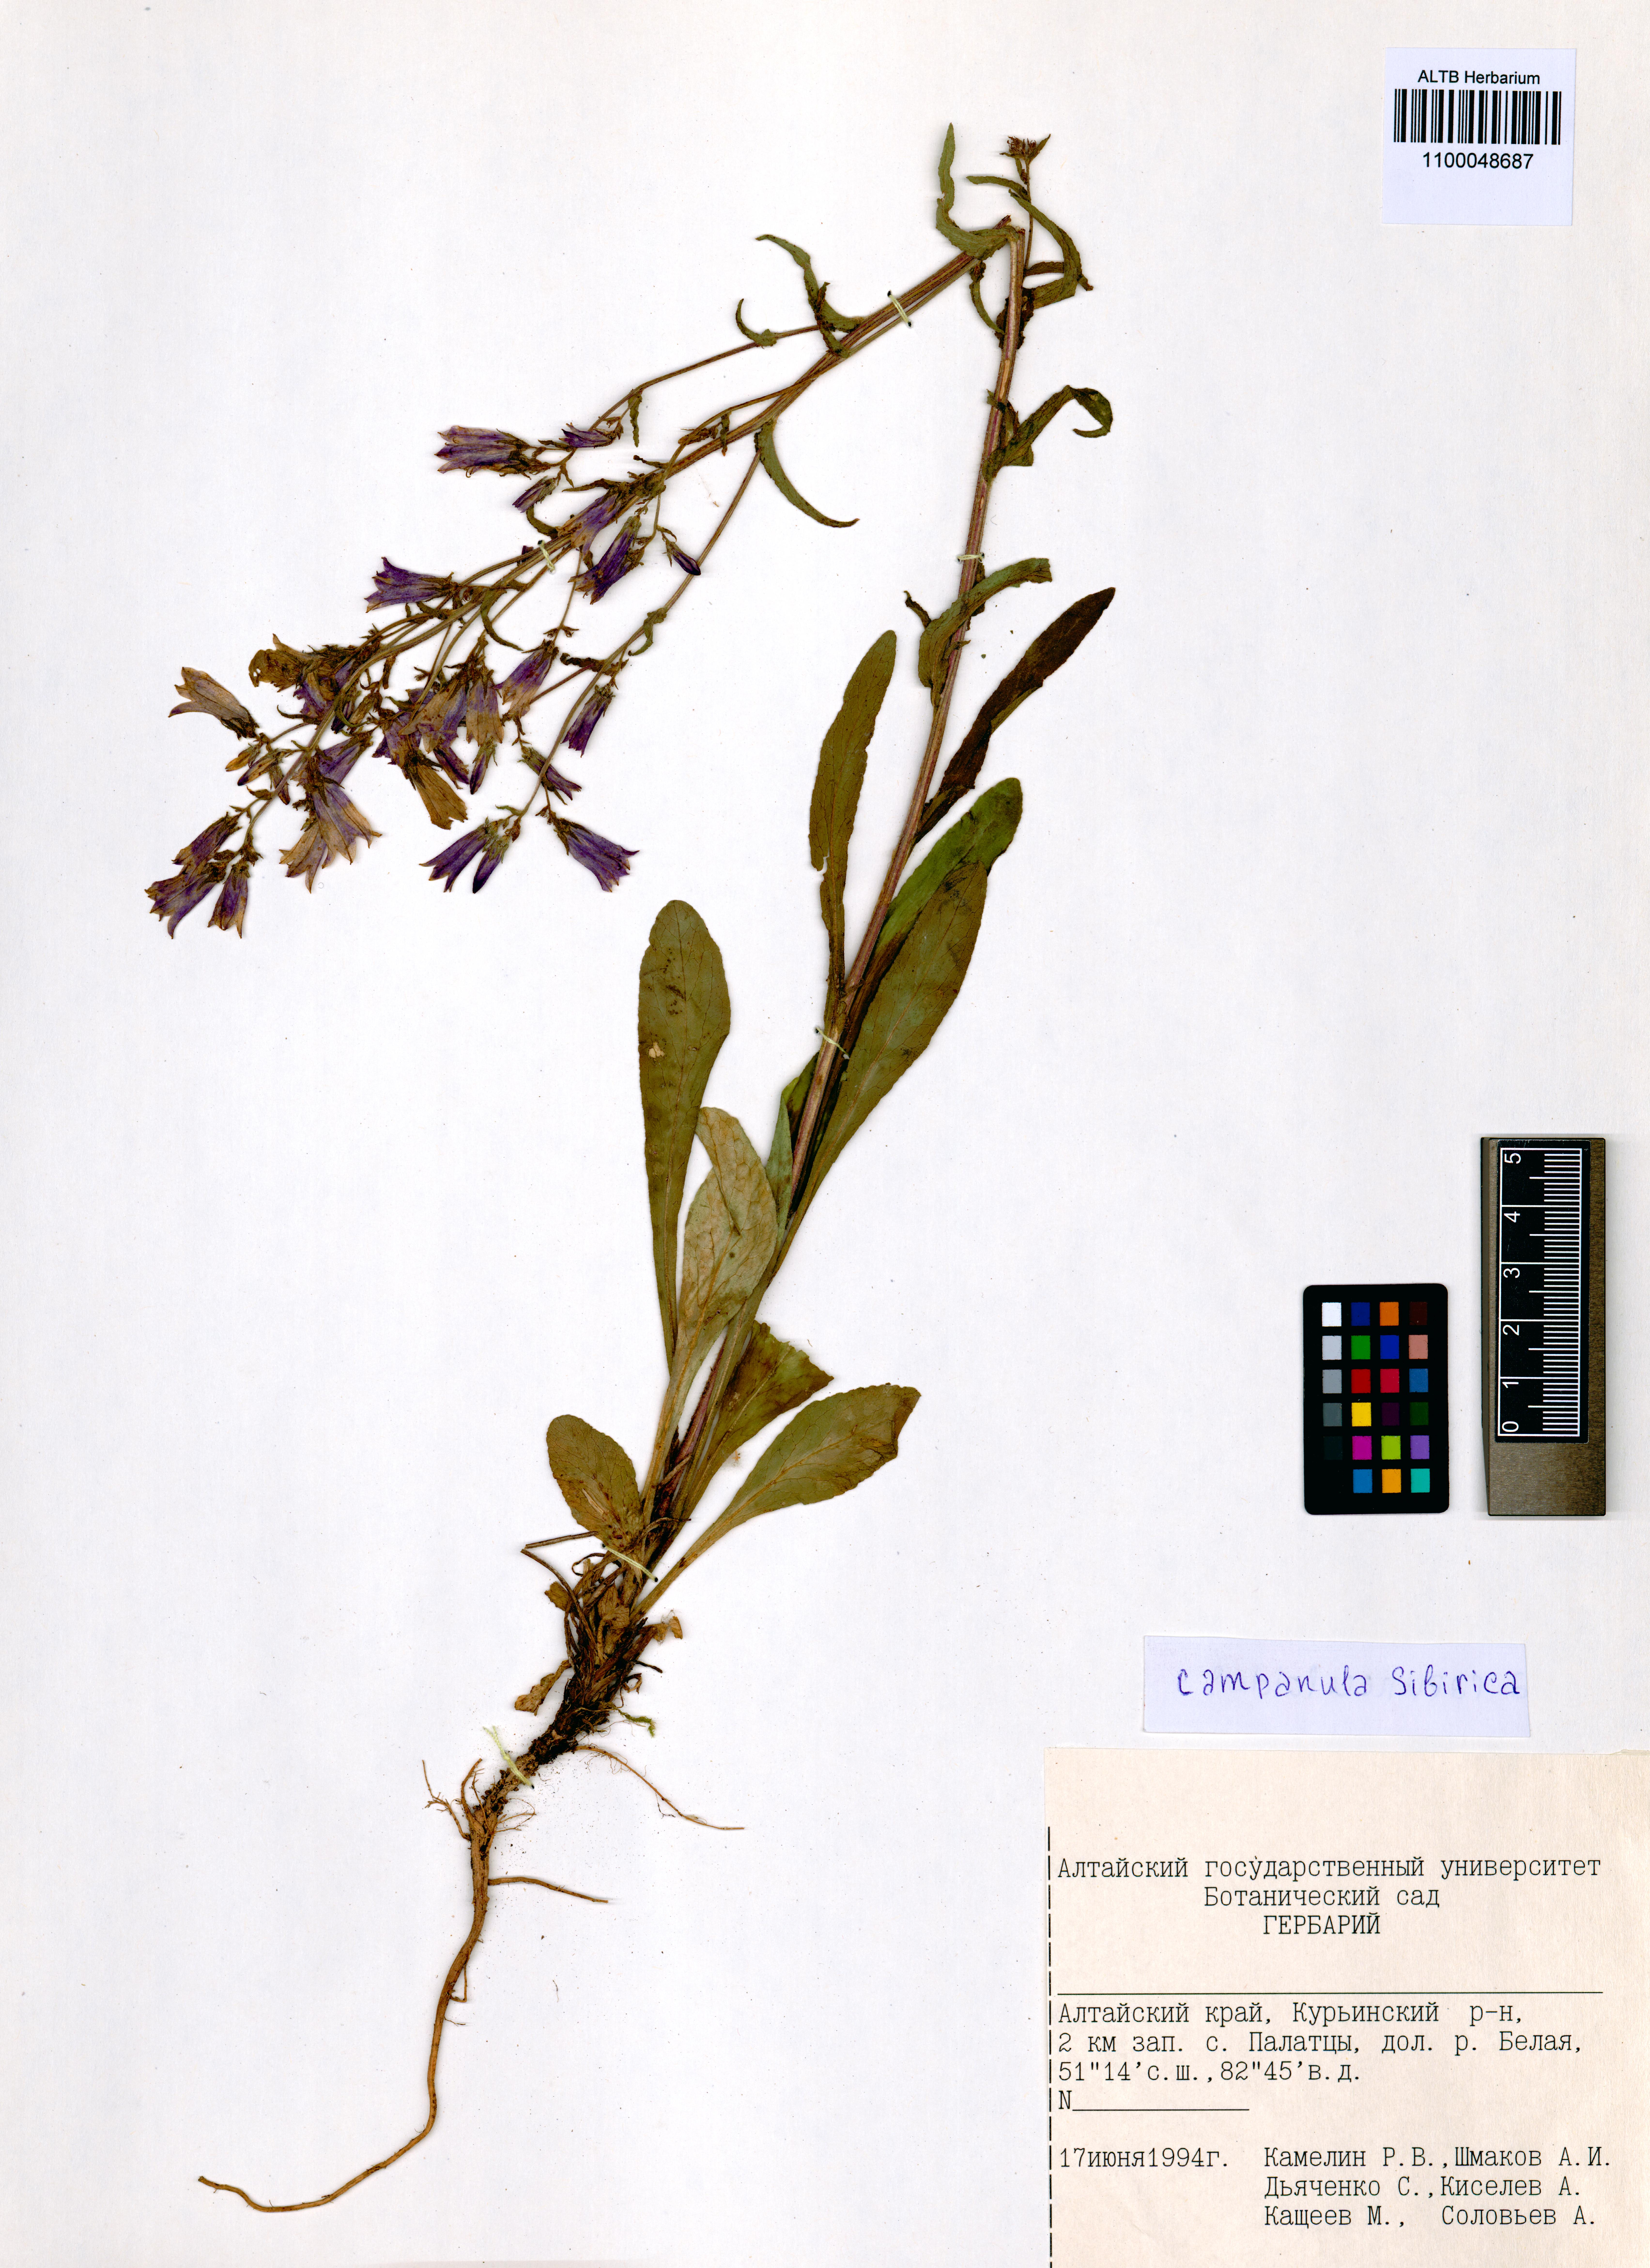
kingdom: Plantae
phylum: Tracheophyta
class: Magnoliopsida
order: Asterales
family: Campanulaceae
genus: Campanula
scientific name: Campanula sibirica
